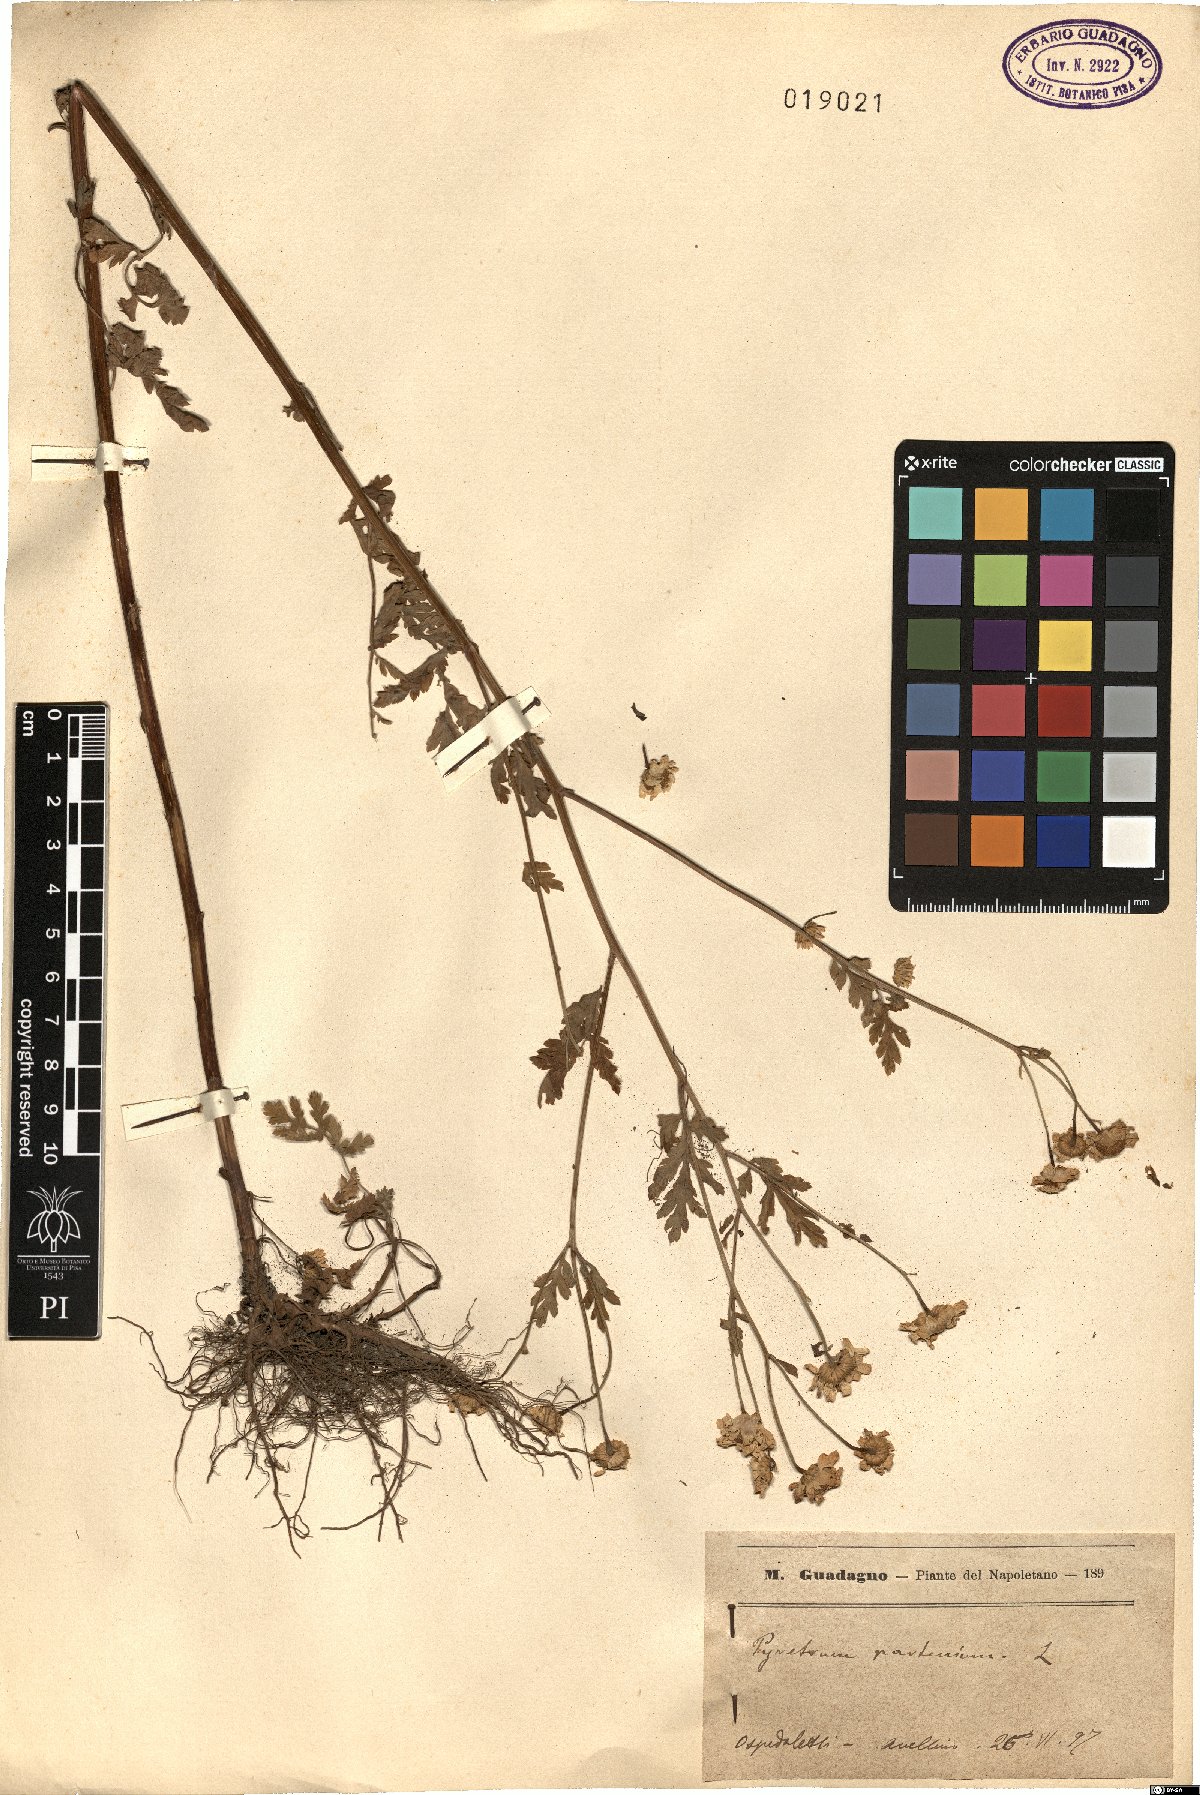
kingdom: Plantae
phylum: Tracheophyta
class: Magnoliopsida
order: Asterales
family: Asteraceae
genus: Tanacetum
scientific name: Tanacetum parthenium
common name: Feverfew
